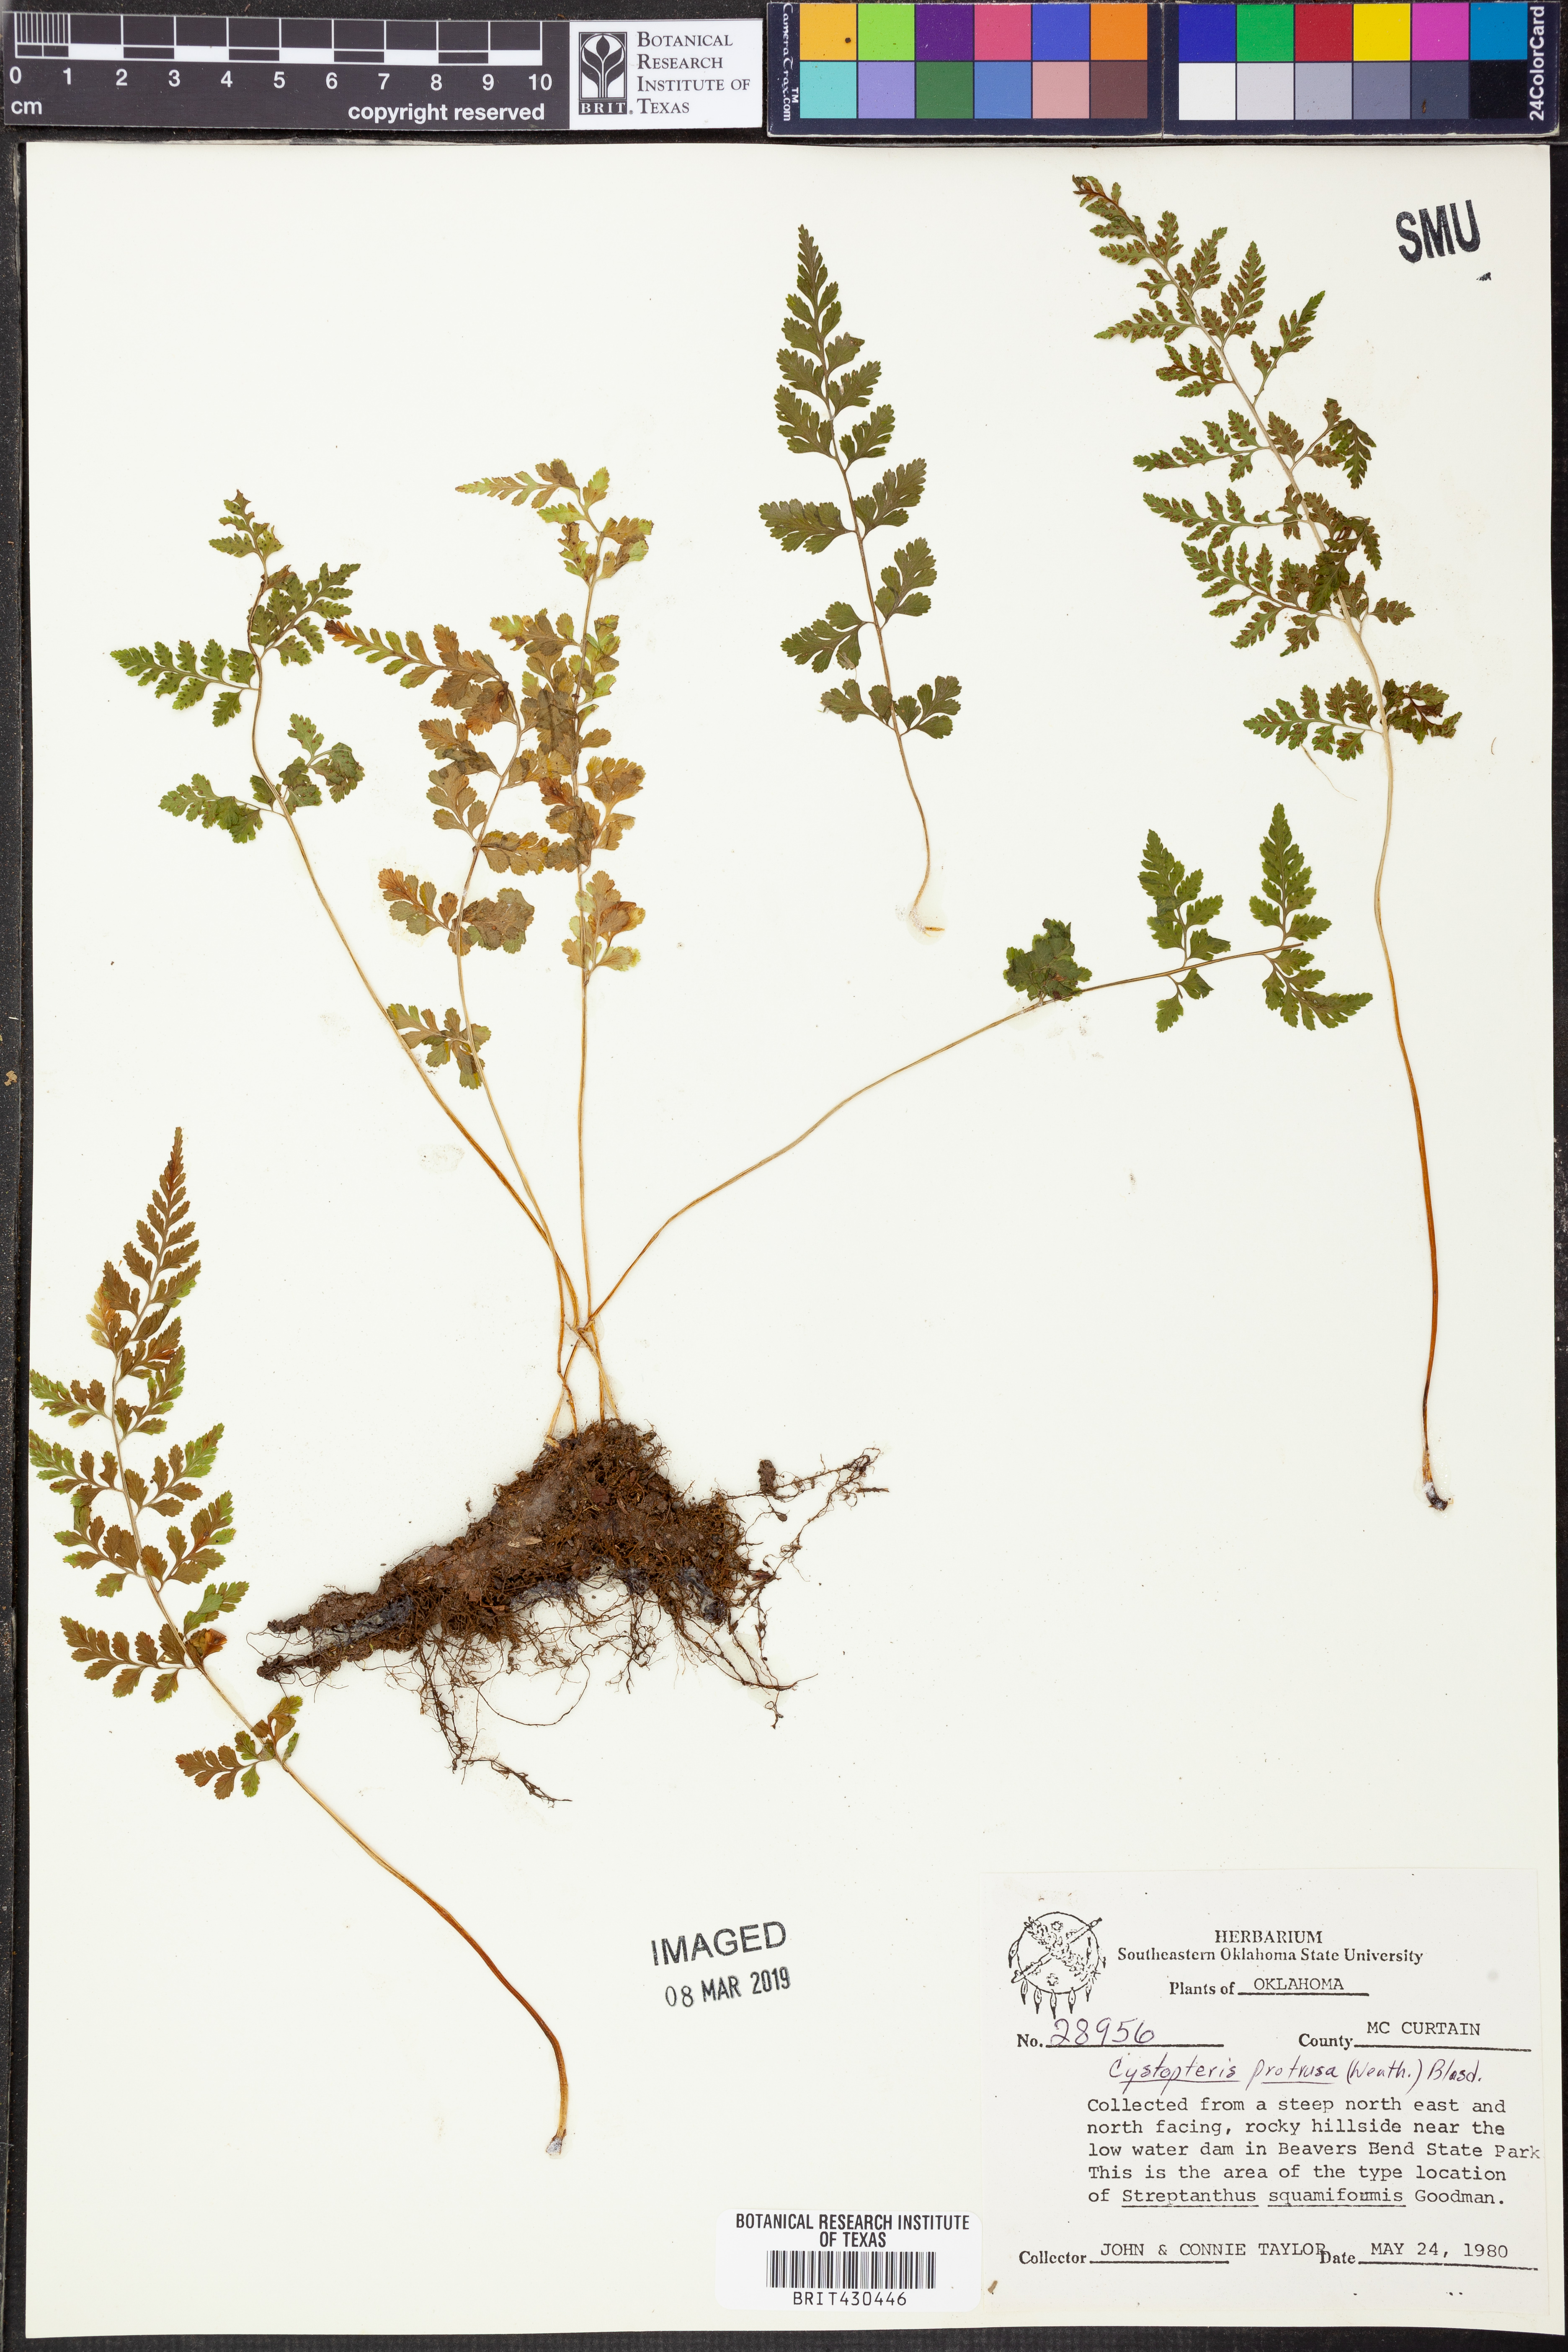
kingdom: Plantae
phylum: Tracheophyta
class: Polypodiopsida
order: Polypodiales
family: Cystopteridaceae
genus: Cystopteris
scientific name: Cystopteris protrusa
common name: Lowland brittle fern
